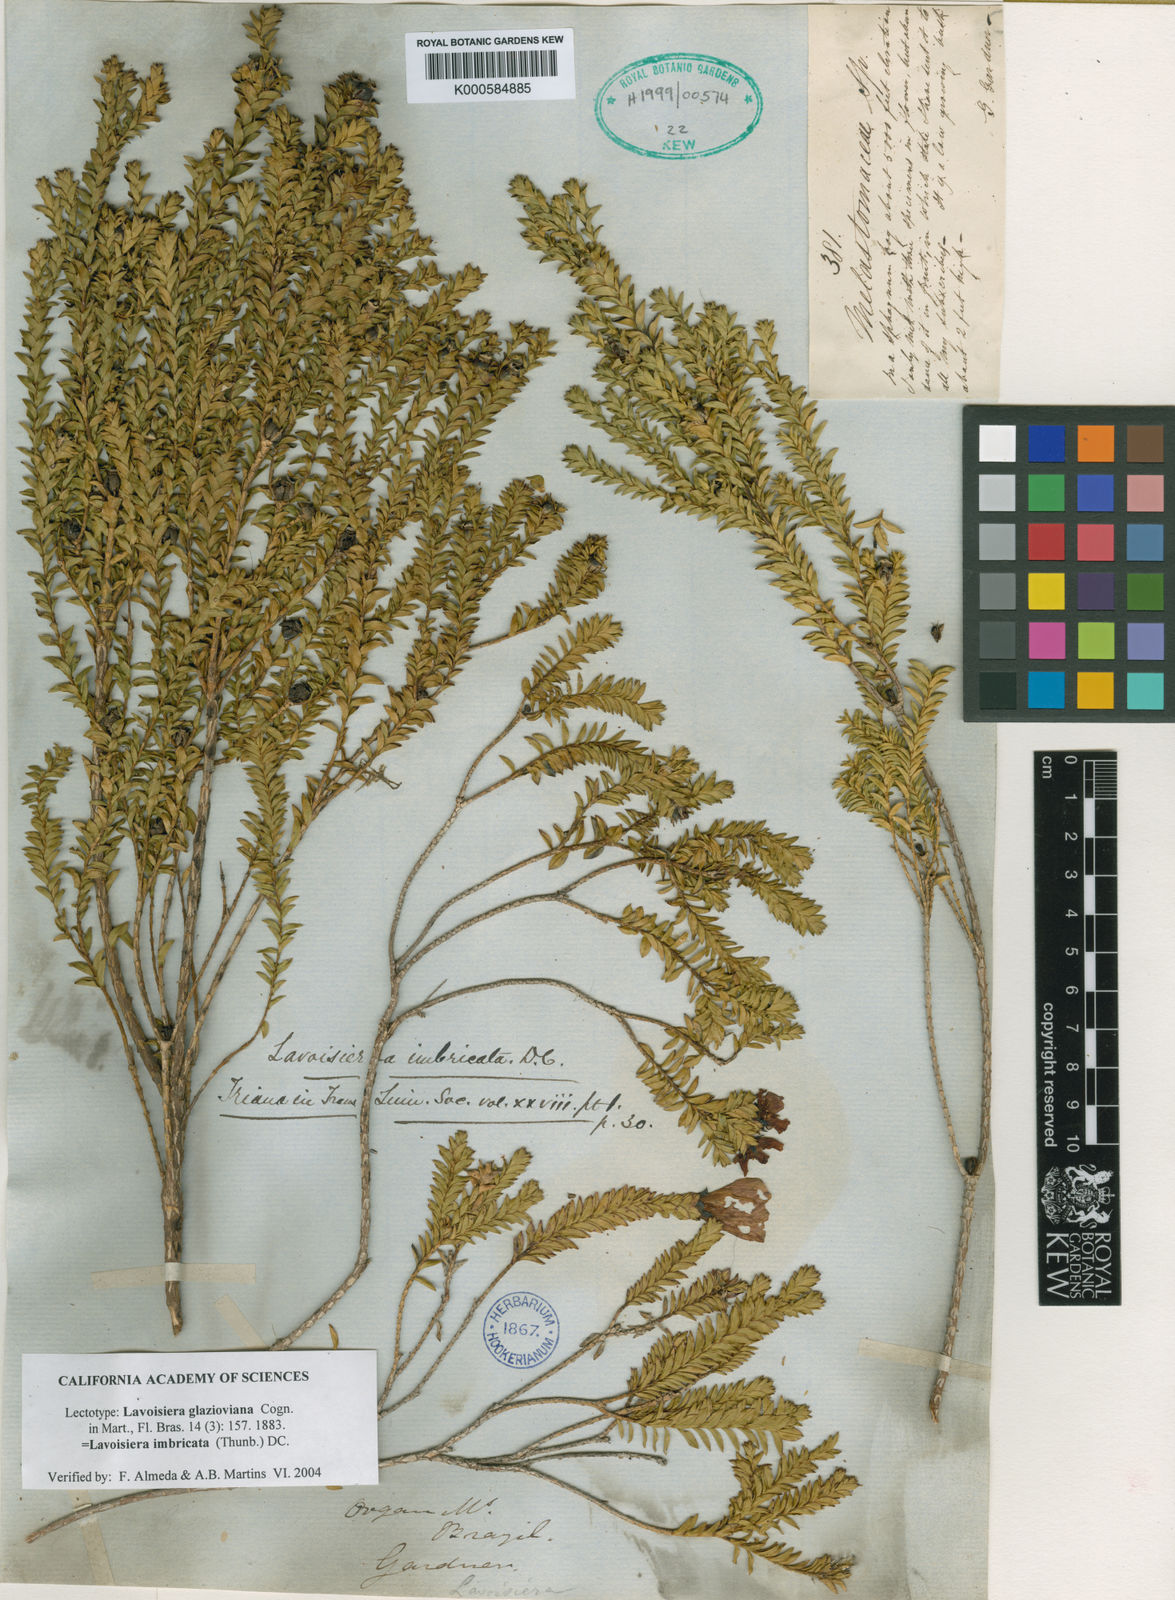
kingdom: Plantae
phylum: Tracheophyta
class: Magnoliopsida
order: Myrtales
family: Melastomataceae
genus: Microlicia
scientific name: Microlicia cataphracta
